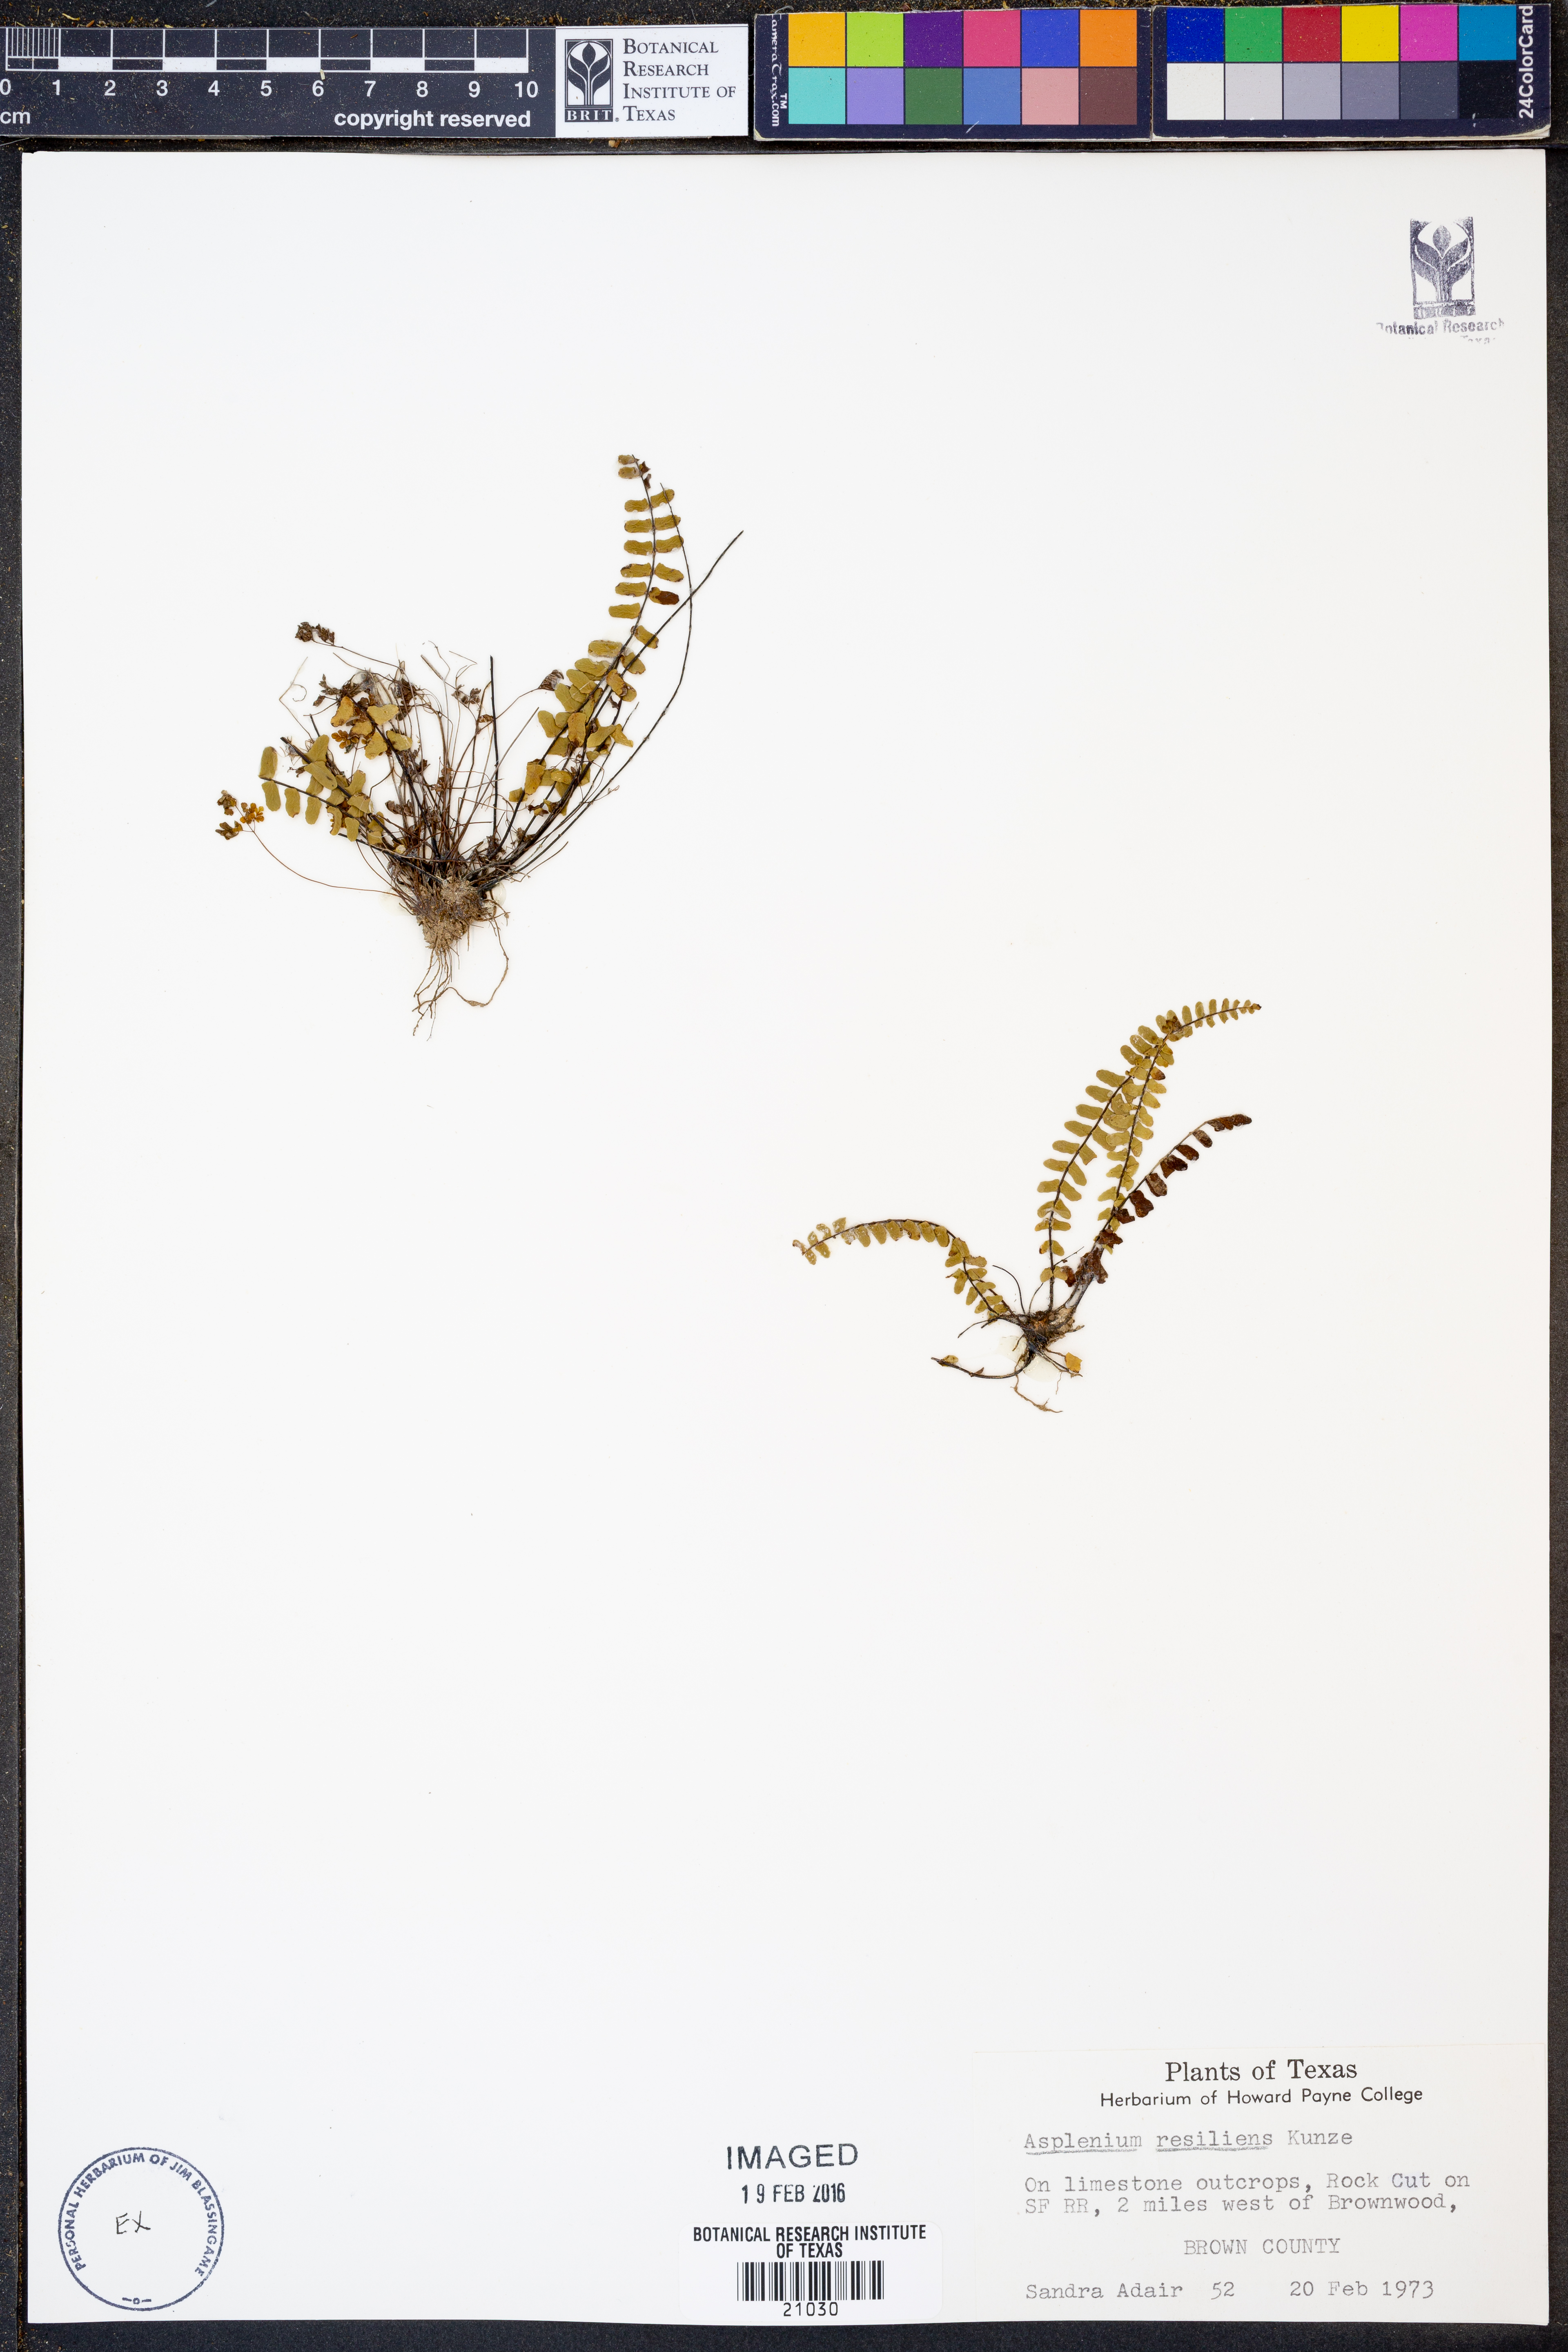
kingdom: Plantae
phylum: Tracheophyta
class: Polypodiopsida
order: Polypodiales
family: Aspleniaceae
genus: Asplenium
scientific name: Asplenium resiliens
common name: Blackstem spleenwort
